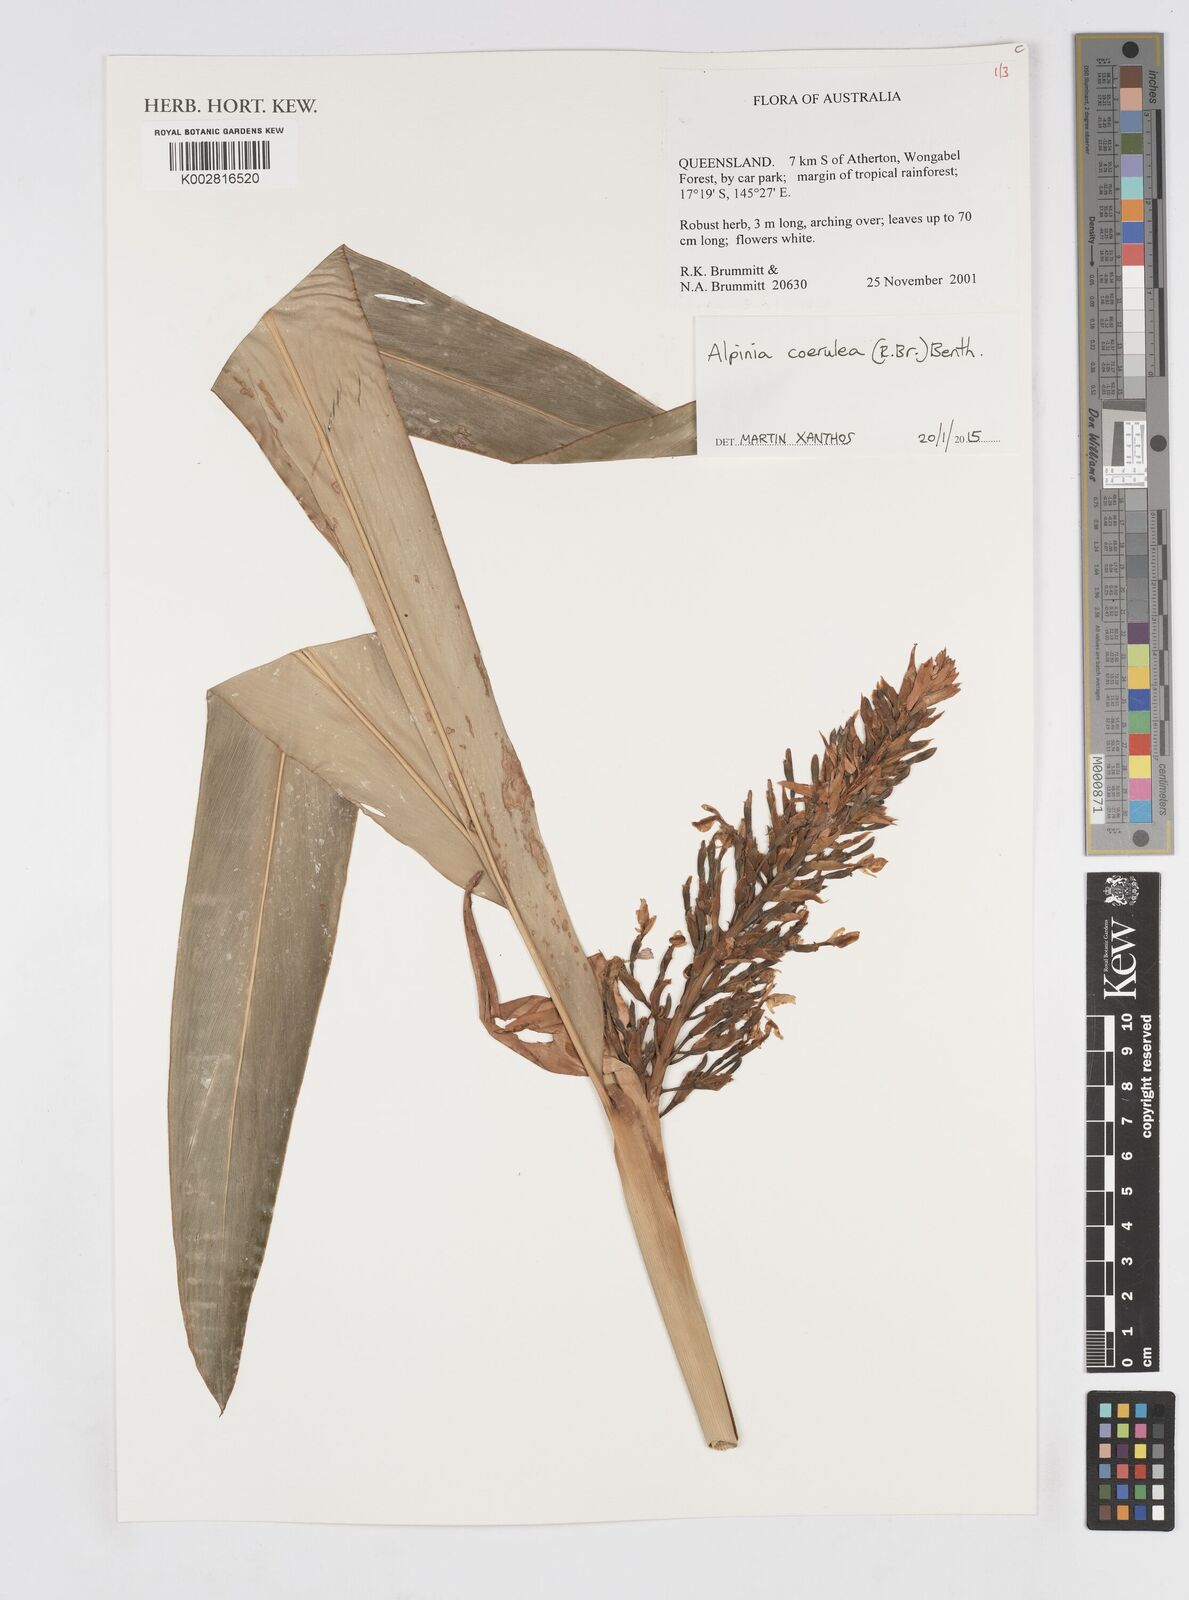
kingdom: Plantae
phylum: Tracheophyta
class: Liliopsida
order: Zingiberales
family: Zingiberaceae
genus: Alpinia
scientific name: Alpinia
